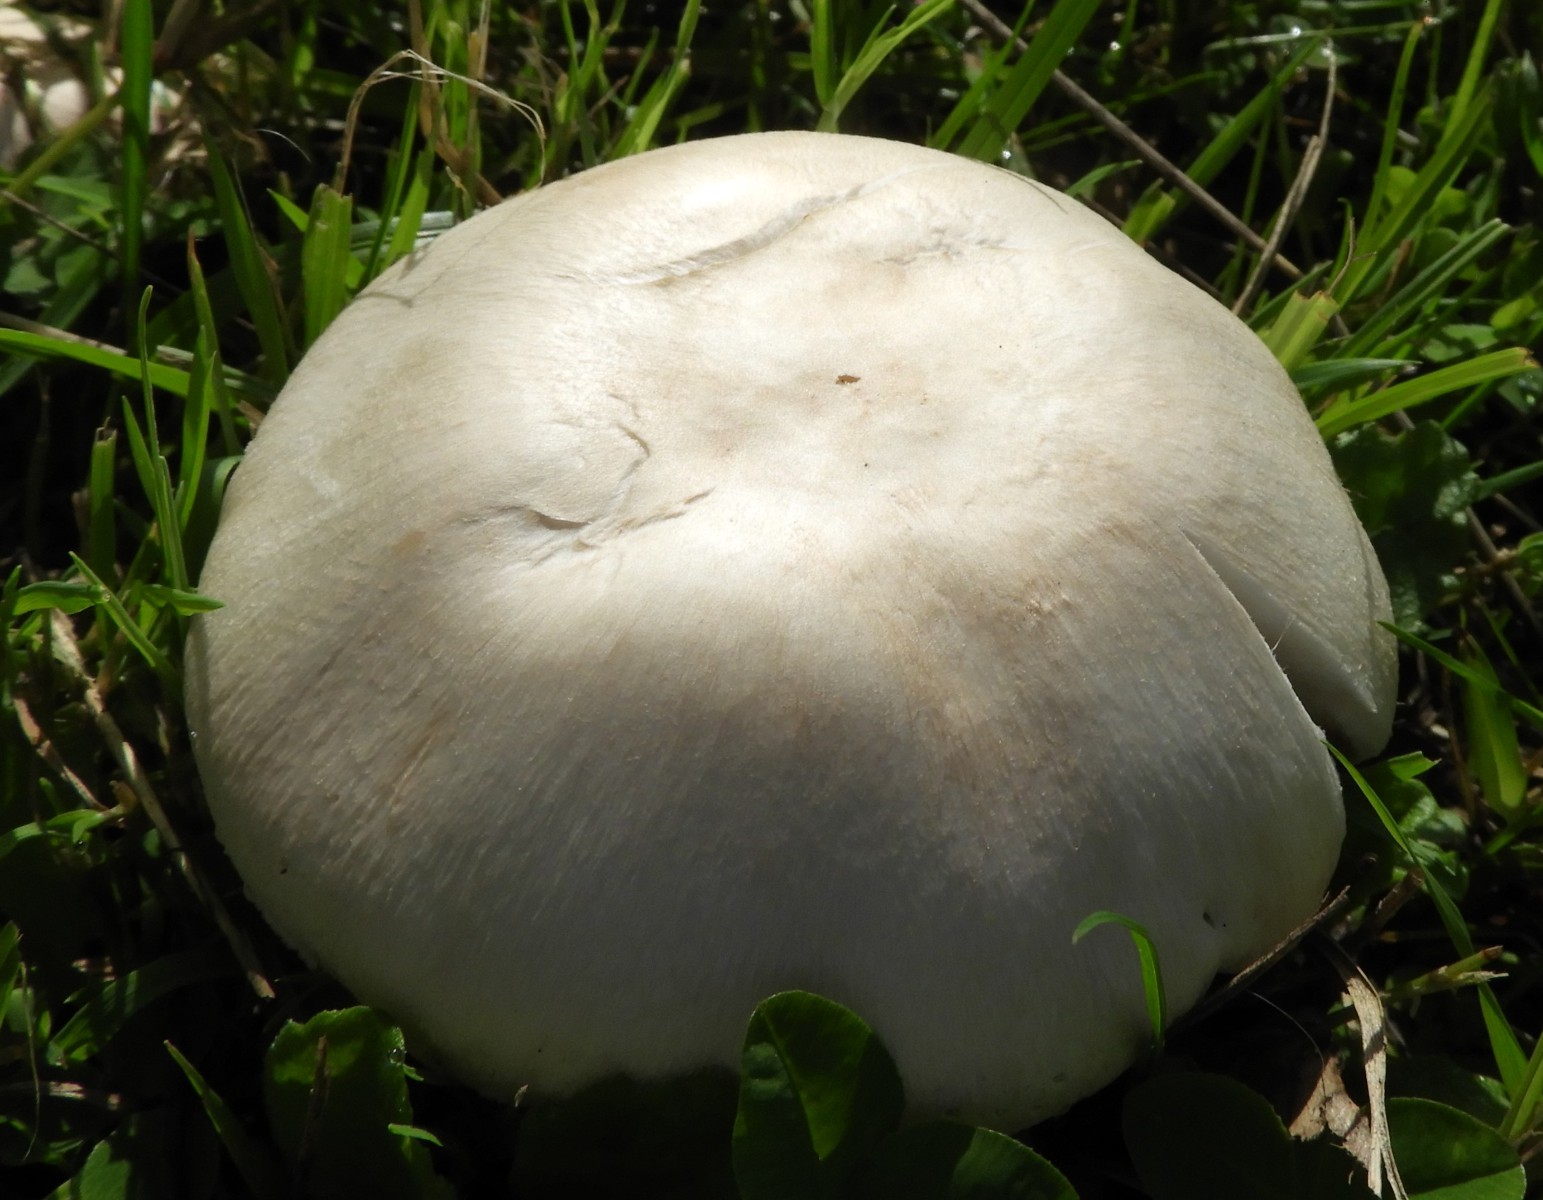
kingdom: Fungi
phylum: Basidiomycota
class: Agaricomycetes
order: Agaricales
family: Agaricaceae
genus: Agaricus
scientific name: Agaricus campestris
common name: mark-champignon
